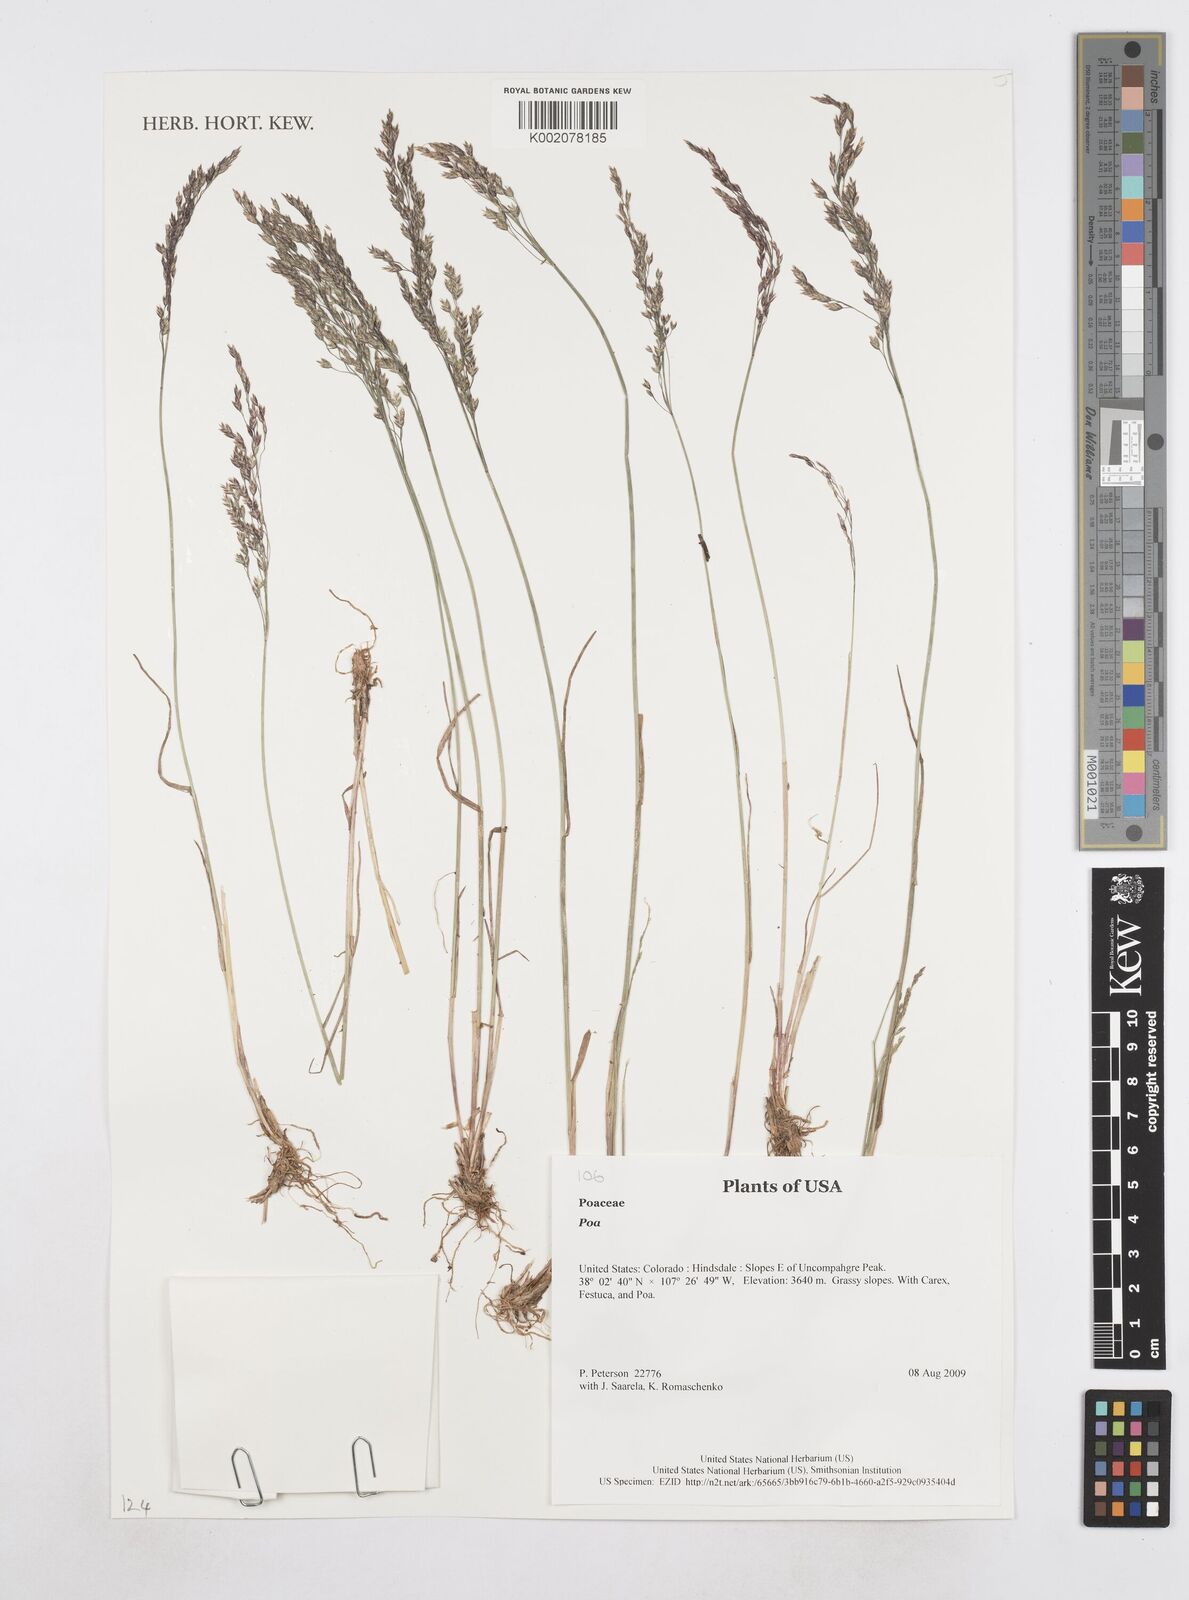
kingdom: Plantae
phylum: Tracheophyta
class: Liliopsida
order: Poales
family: Poaceae
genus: Poa
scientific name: Poa
